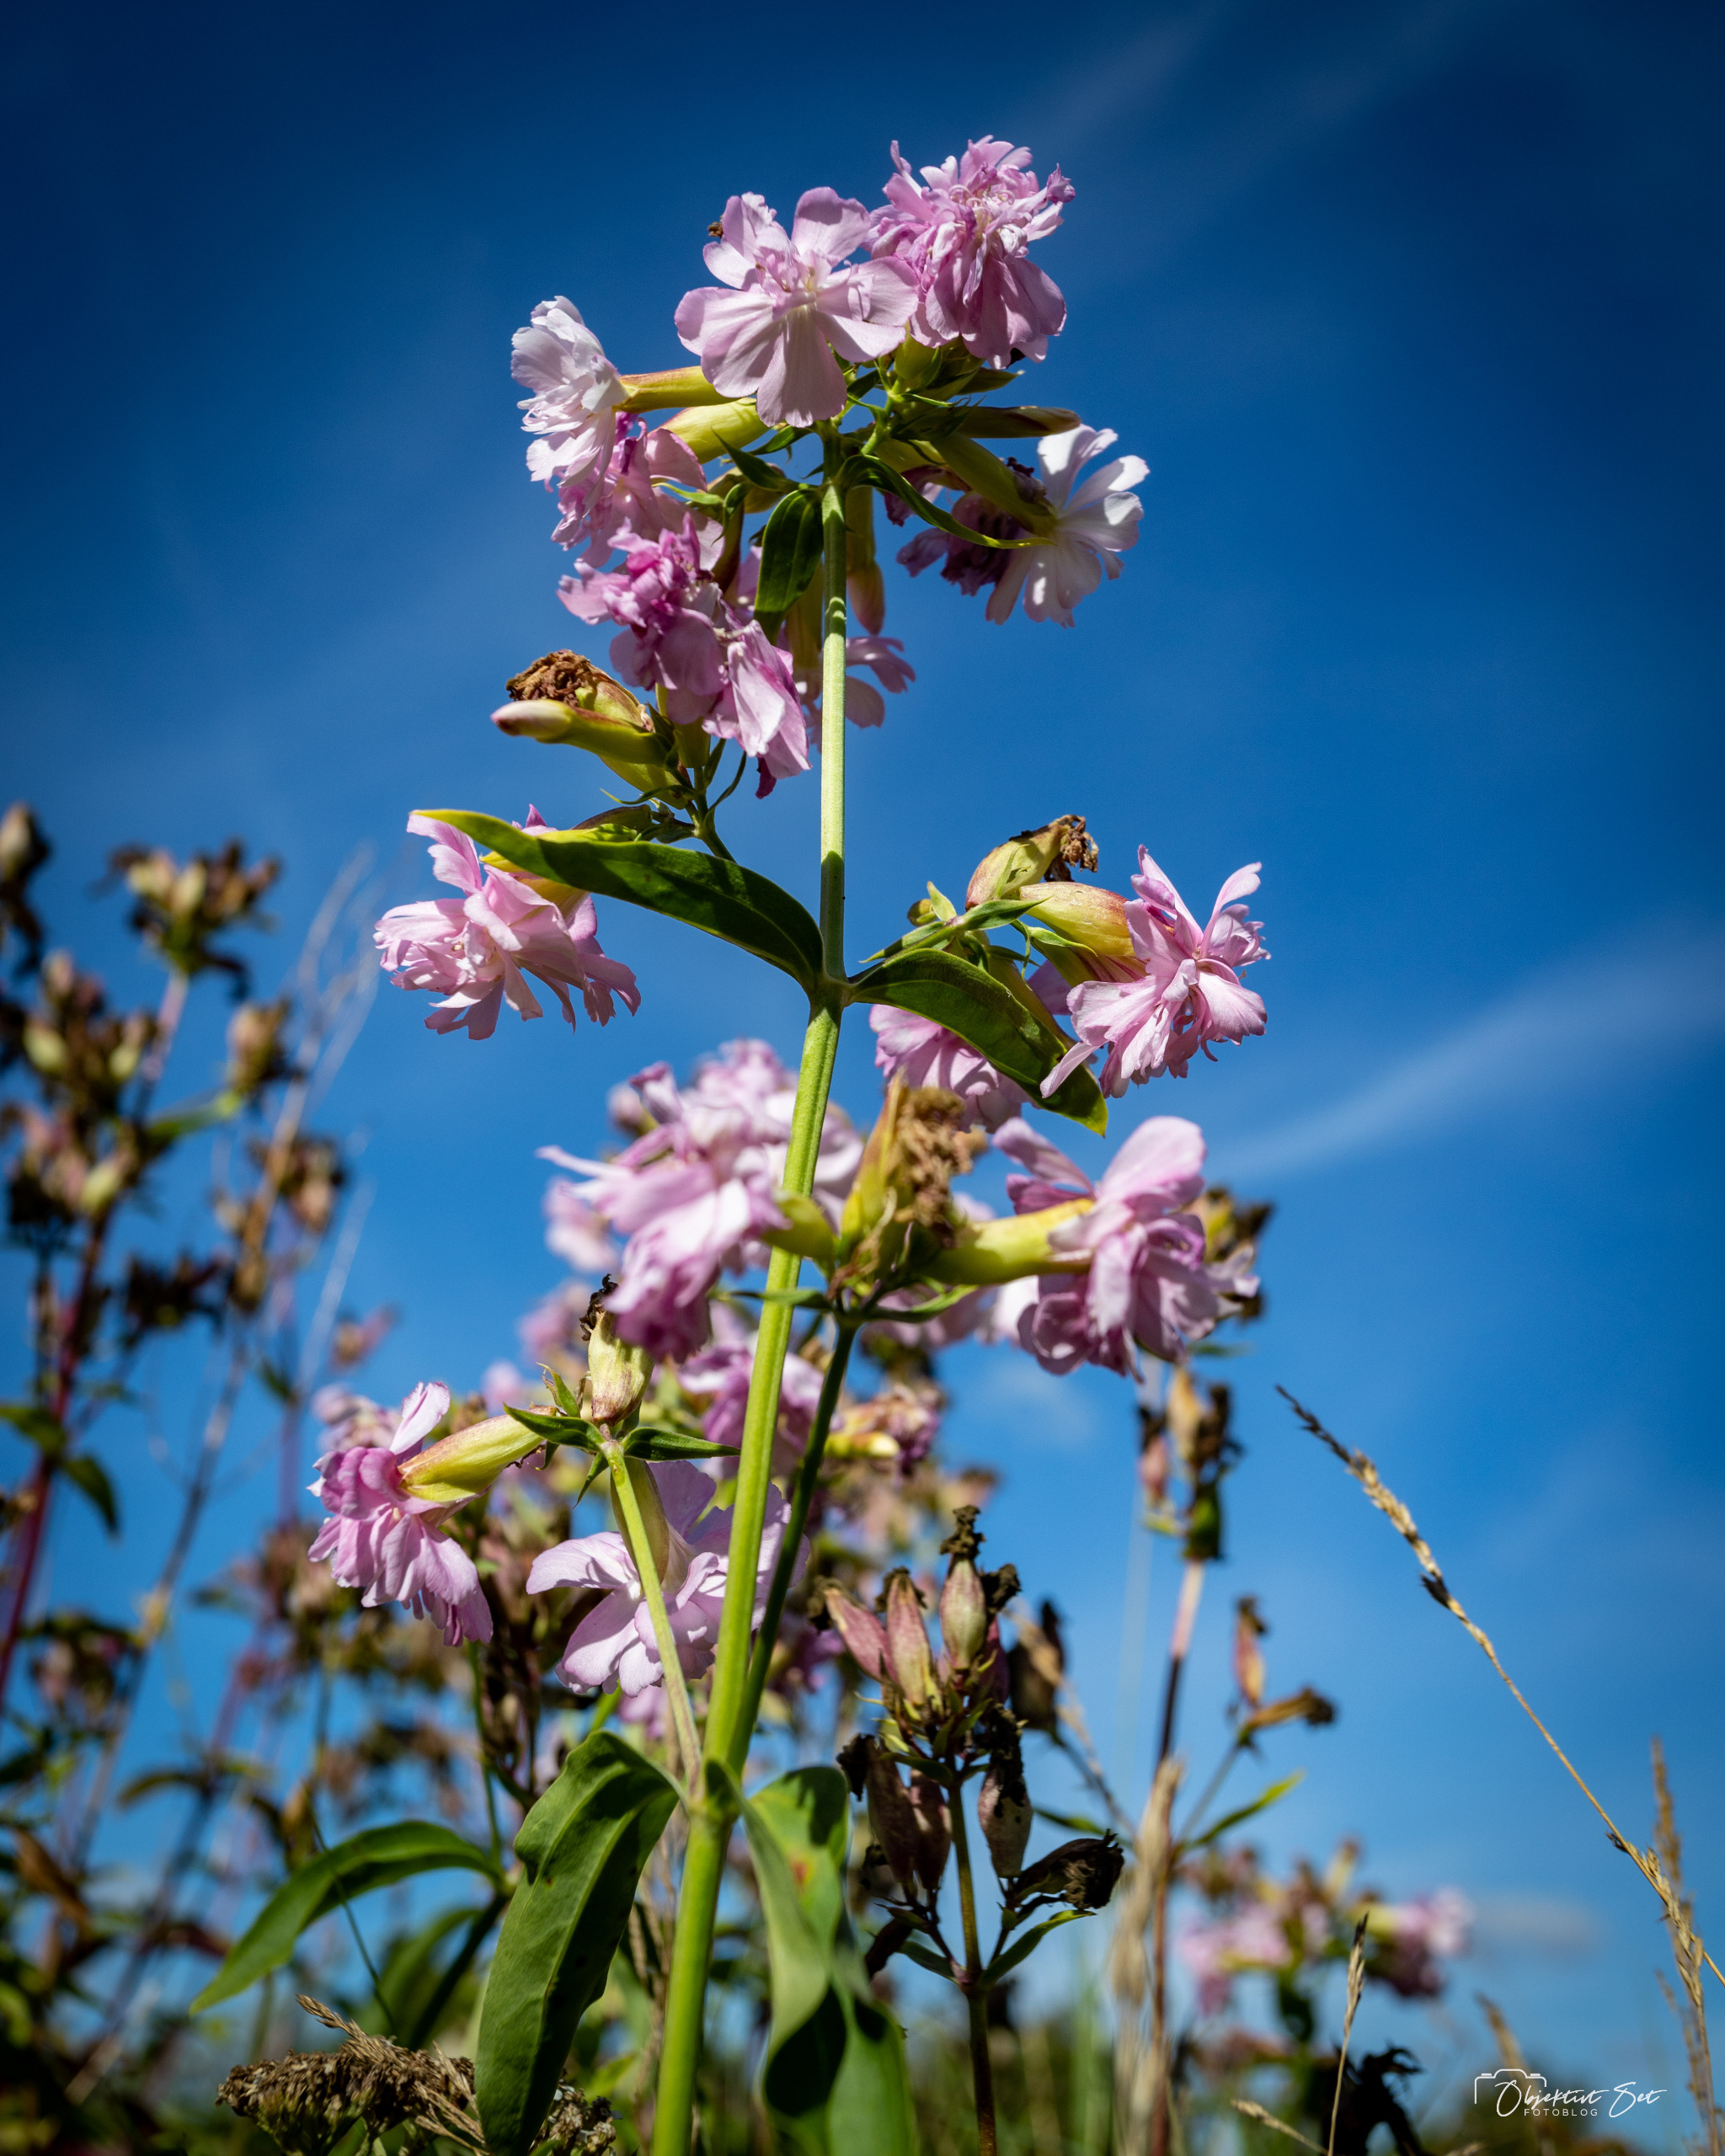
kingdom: Plantae
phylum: Tracheophyta
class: Magnoliopsida
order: Caryophyllales
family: Caryophyllaceae
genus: Saponaria
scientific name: Saponaria officinalis
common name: Sæbeurt
